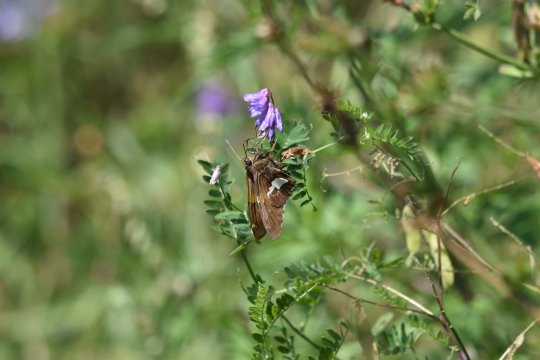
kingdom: Animalia
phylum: Arthropoda
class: Insecta
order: Lepidoptera
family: Hesperiidae
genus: Epargyreus
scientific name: Epargyreus clarus
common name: Silver-spotted Skipper
